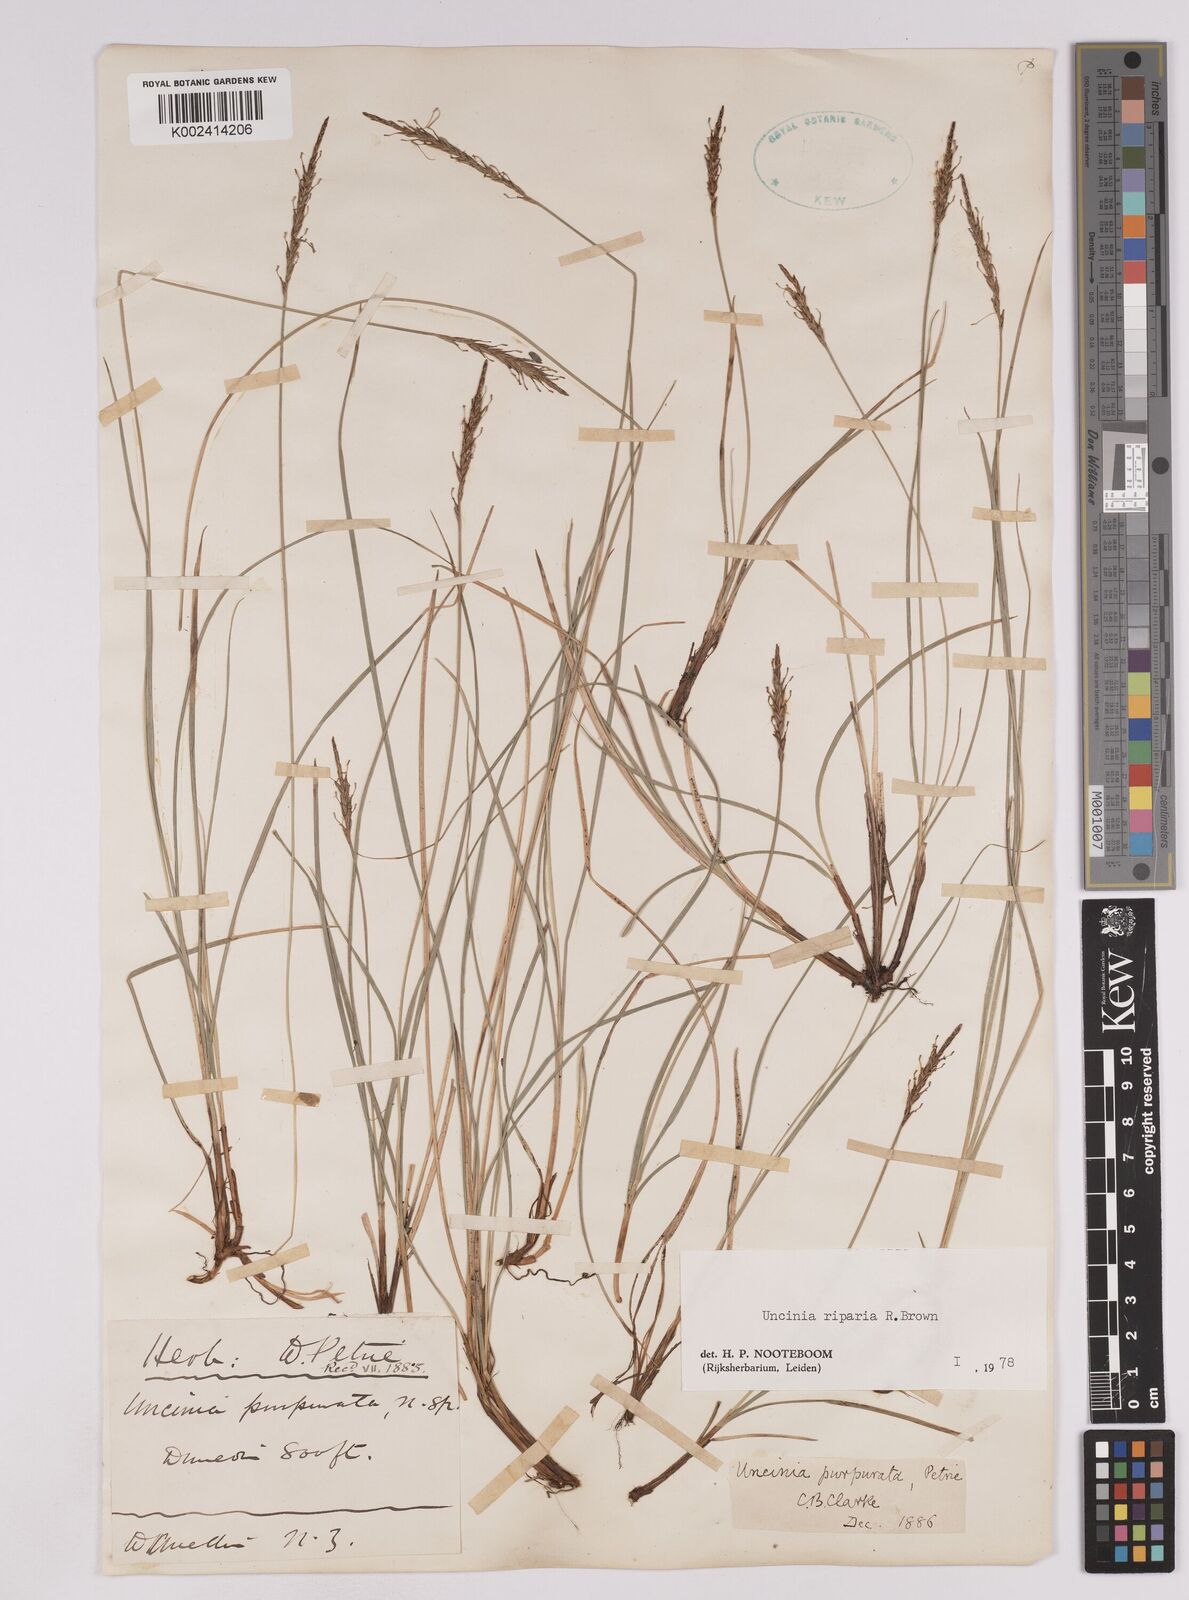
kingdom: Plantae
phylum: Tracheophyta
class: Liliopsida
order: Poales
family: Cyperaceae
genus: Carex
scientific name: Carex purpurata
